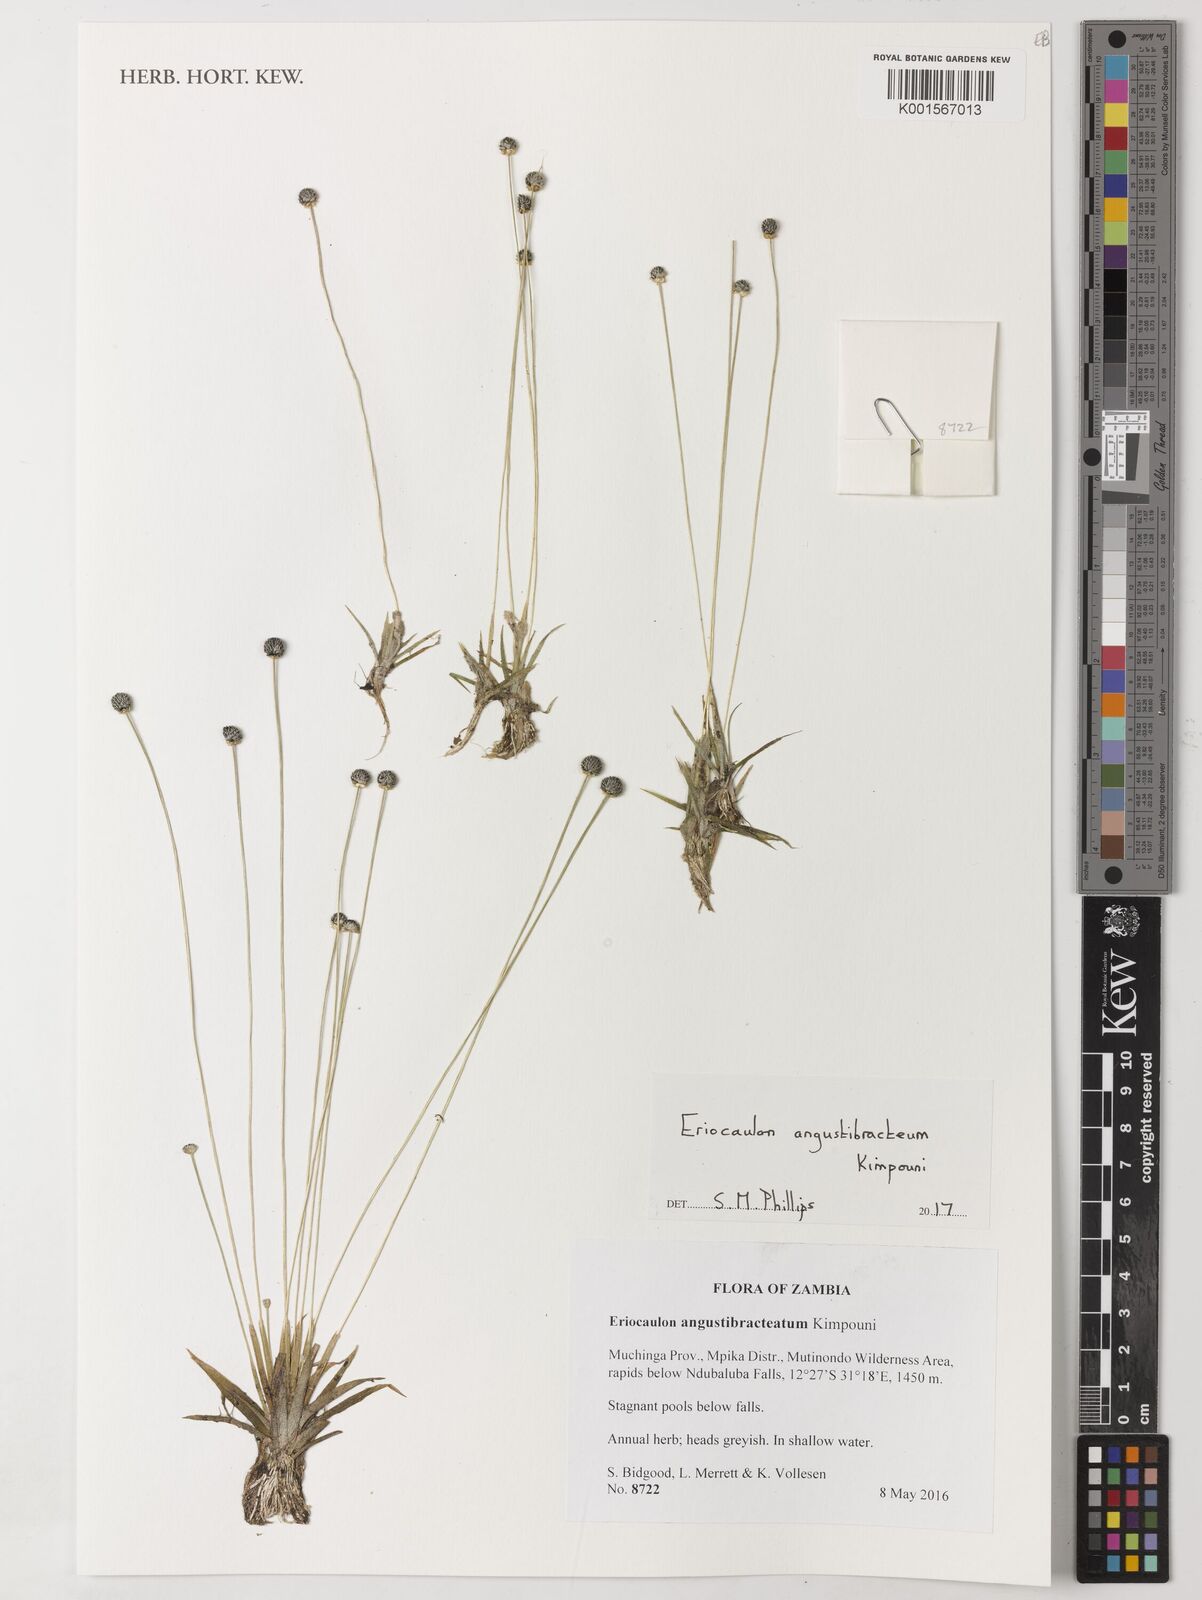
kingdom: Plantae
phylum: Tracheophyta
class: Liliopsida
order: Poales
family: Eriocaulaceae
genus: Eriocaulon
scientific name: Eriocaulon angustibracteum
